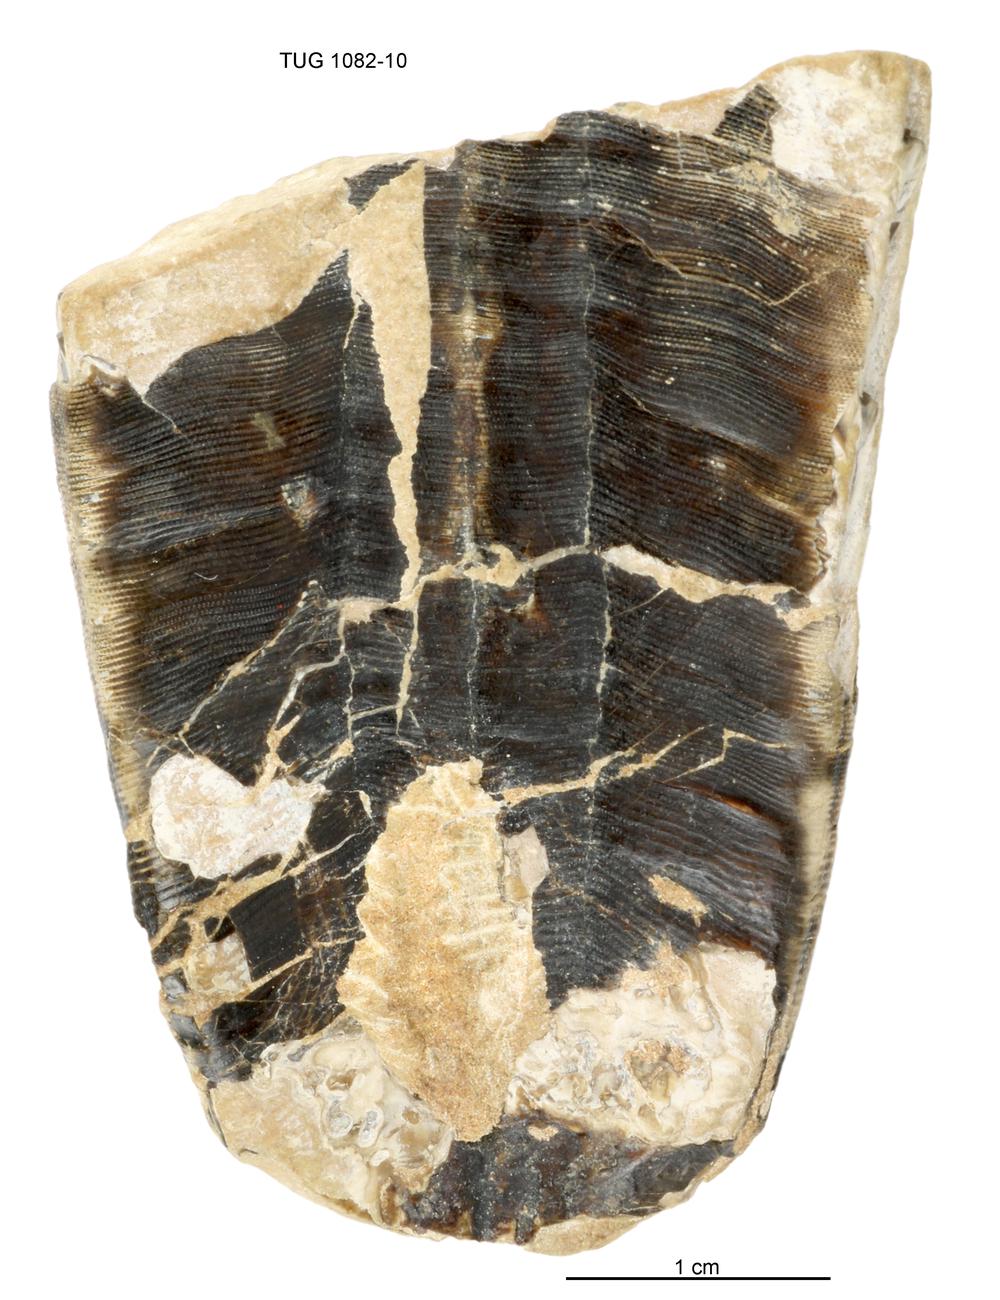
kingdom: Animalia
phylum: Cnidaria
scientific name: Cnidaria
